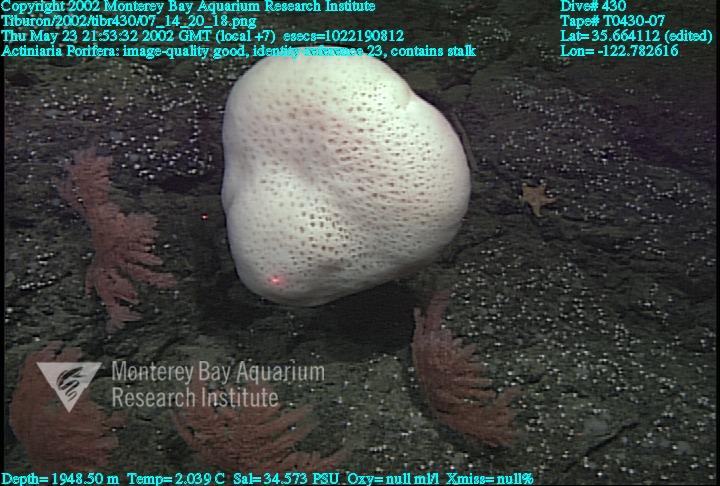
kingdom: Animalia
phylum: Porifera
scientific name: Porifera
